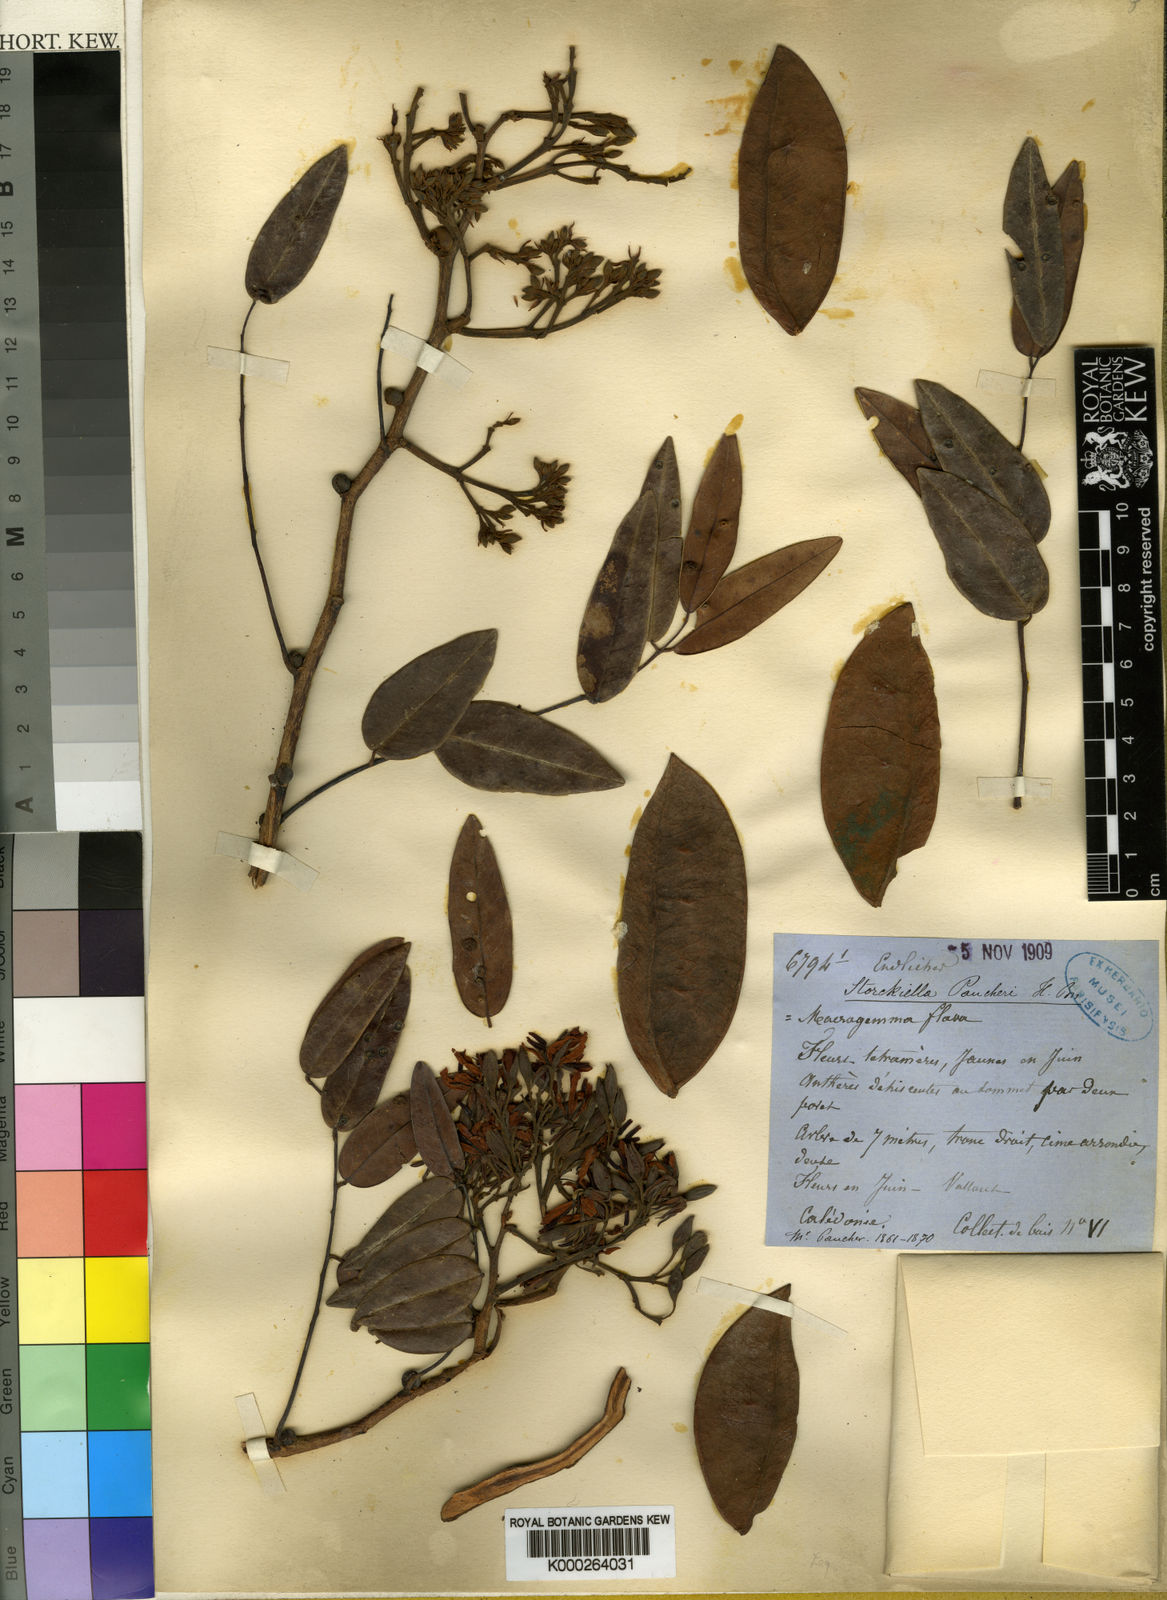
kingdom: Plantae
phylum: Tracheophyta
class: Magnoliopsida
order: Fabales
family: Fabaceae
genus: Storckiella
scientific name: Storckiella
